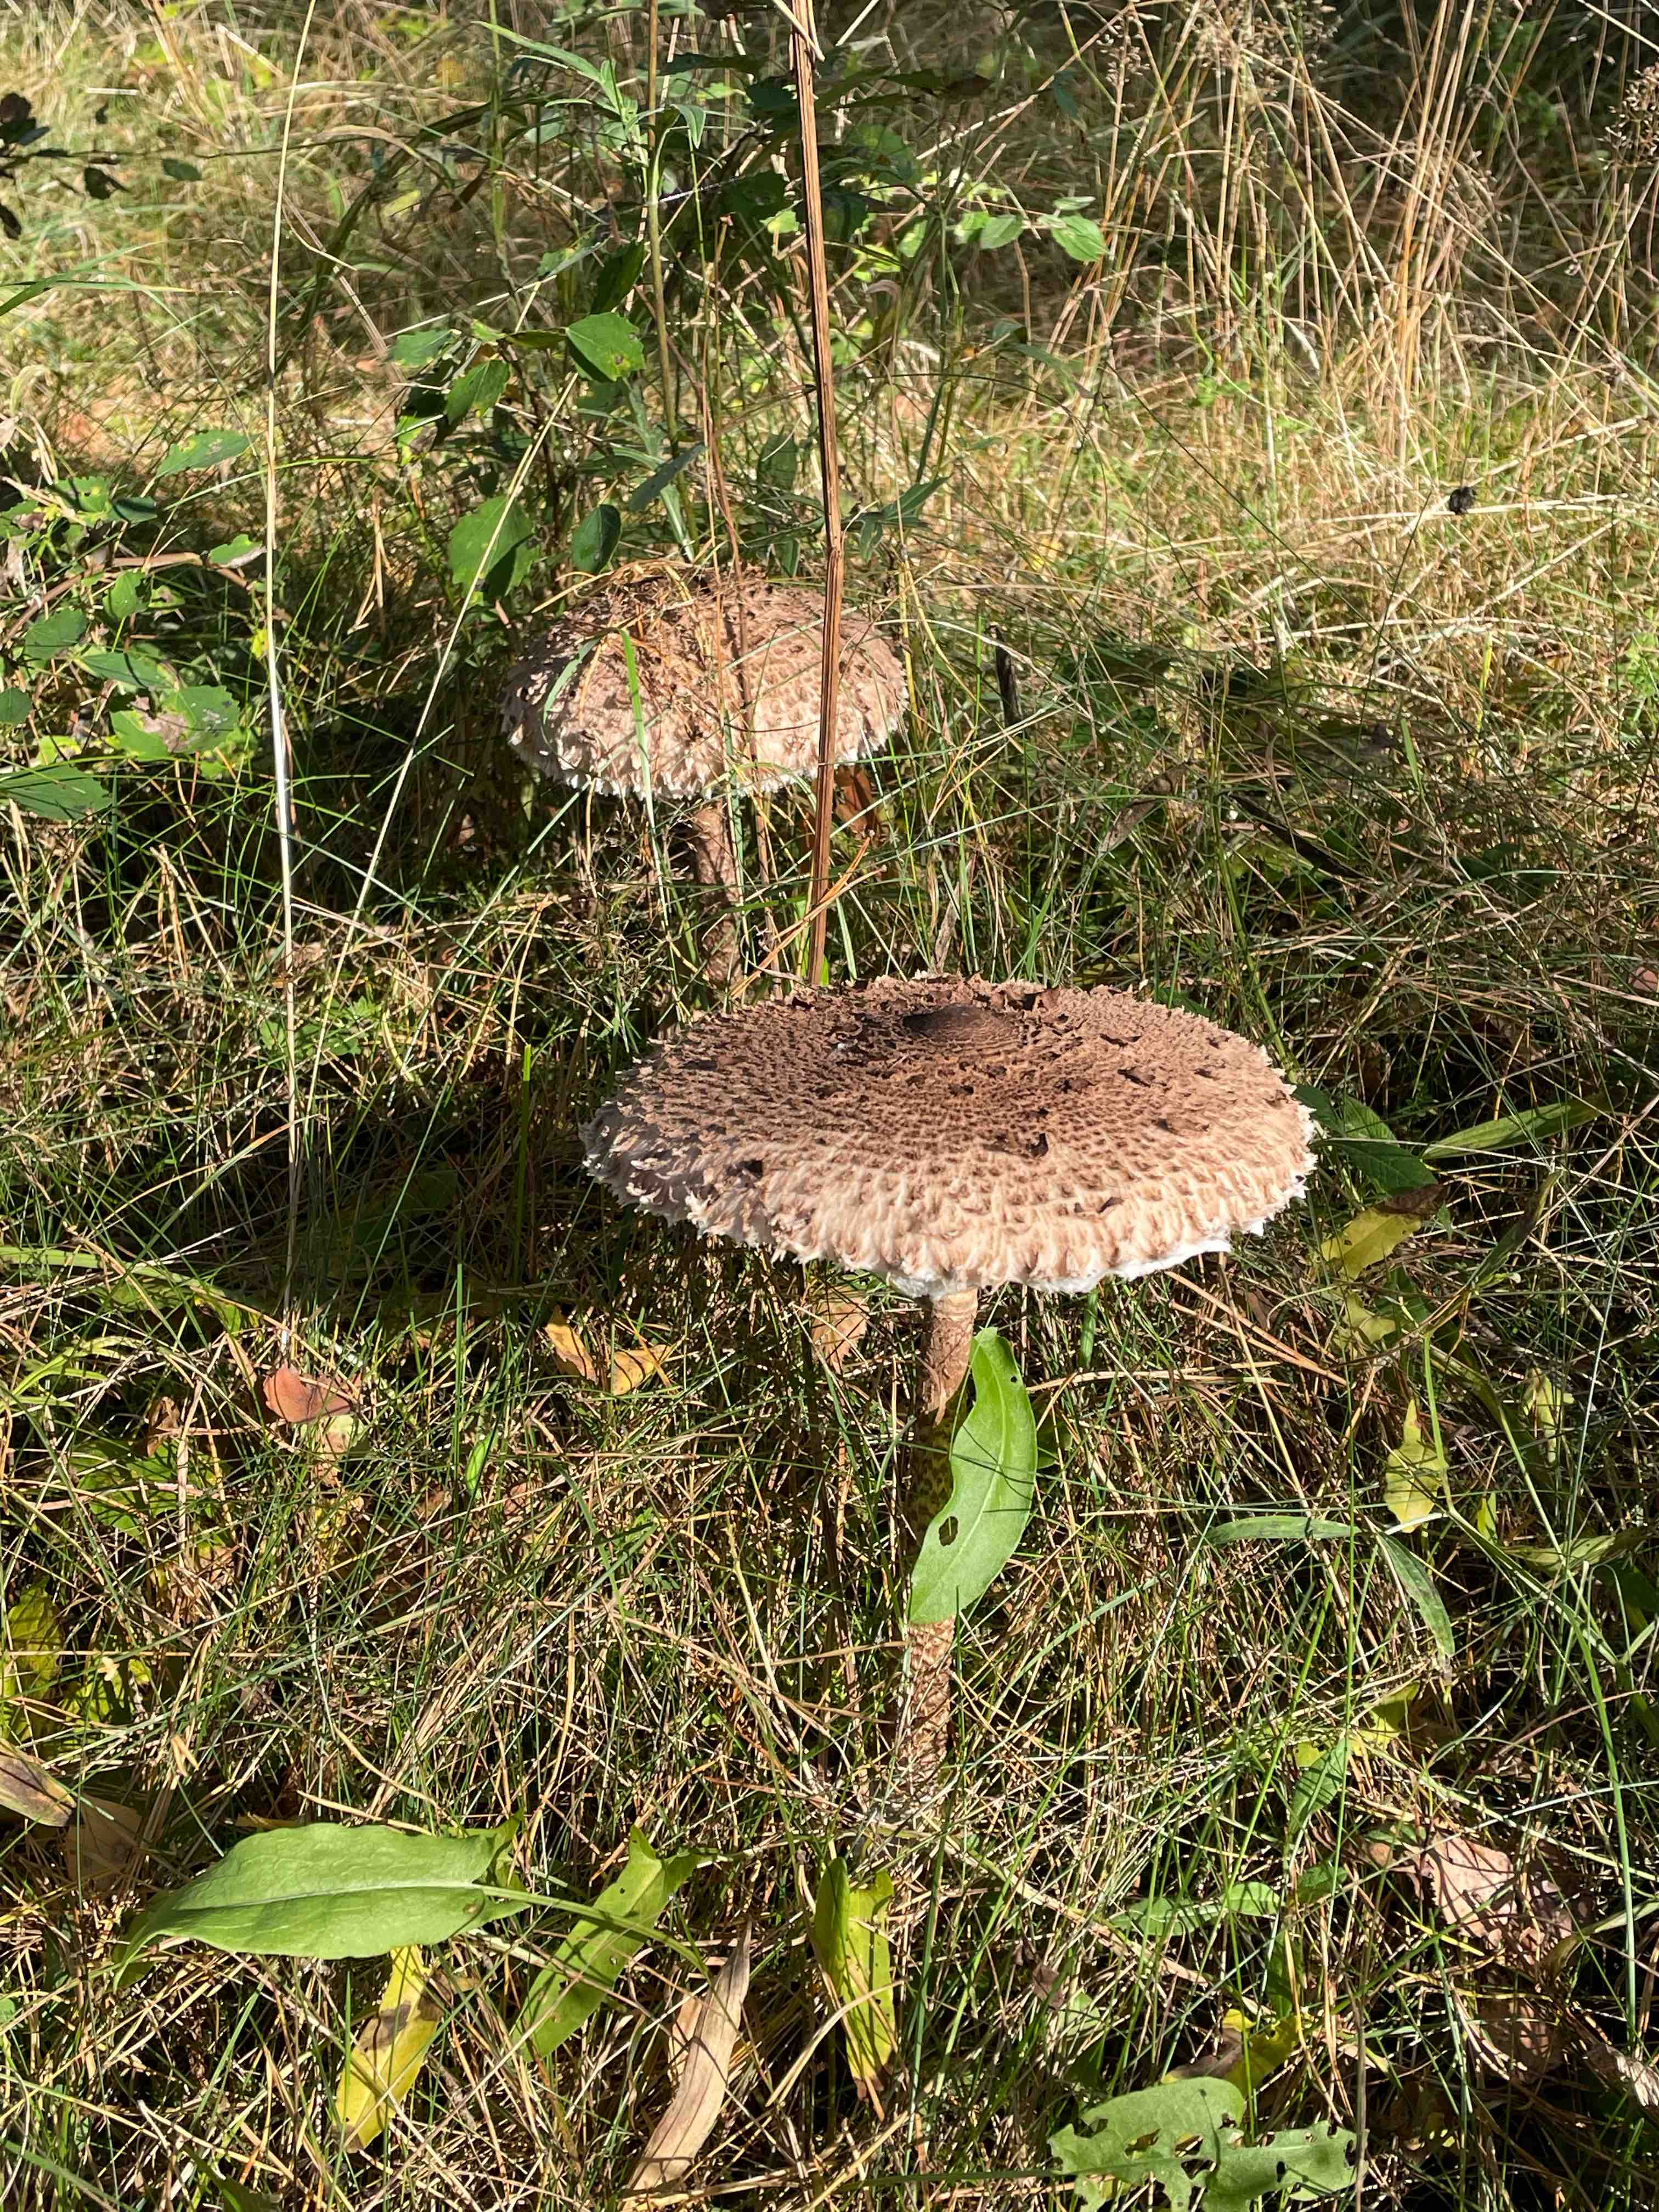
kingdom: Fungi
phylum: Basidiomycota
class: Agaricomycetes
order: Agaricales
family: Agaricaceae
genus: Macrolepiota
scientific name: Macrolepiota procera
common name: stor kæmpeparasolhat
